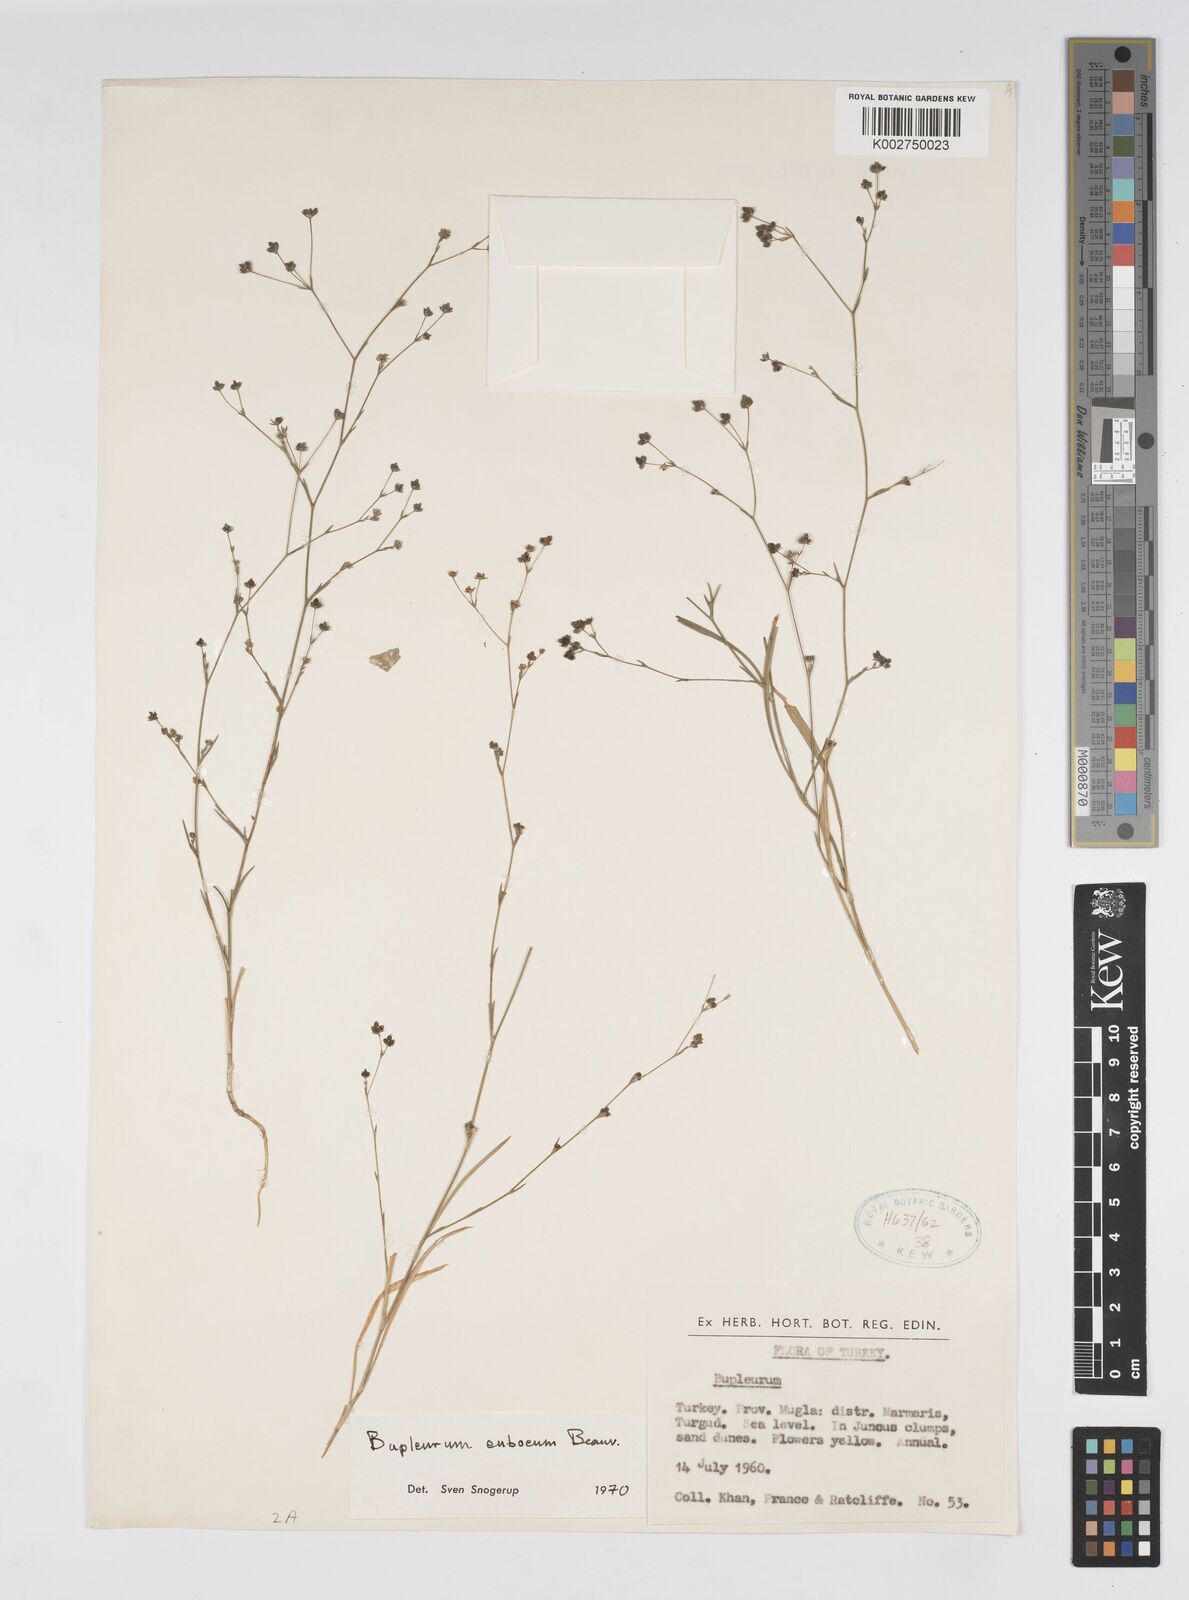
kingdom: Plantae
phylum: Tracheophyta
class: Magnoliopsida
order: Apiales
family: Apiaceae
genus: Bupleurum
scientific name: Bupleurum euboeum
